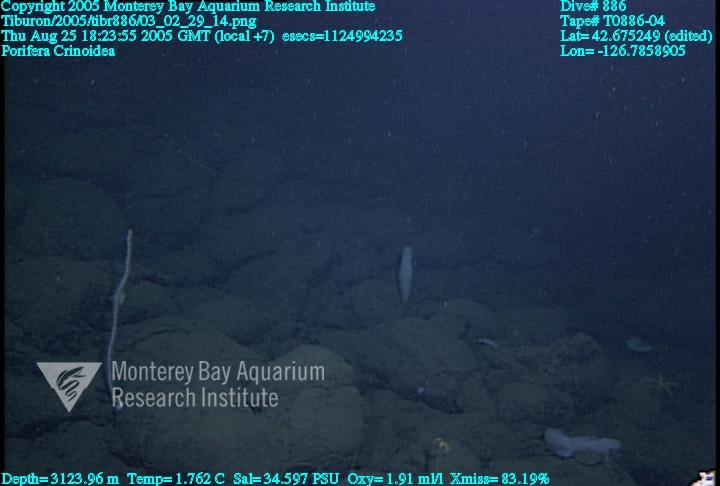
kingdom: Animalia
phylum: Porifera
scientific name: Porifera
